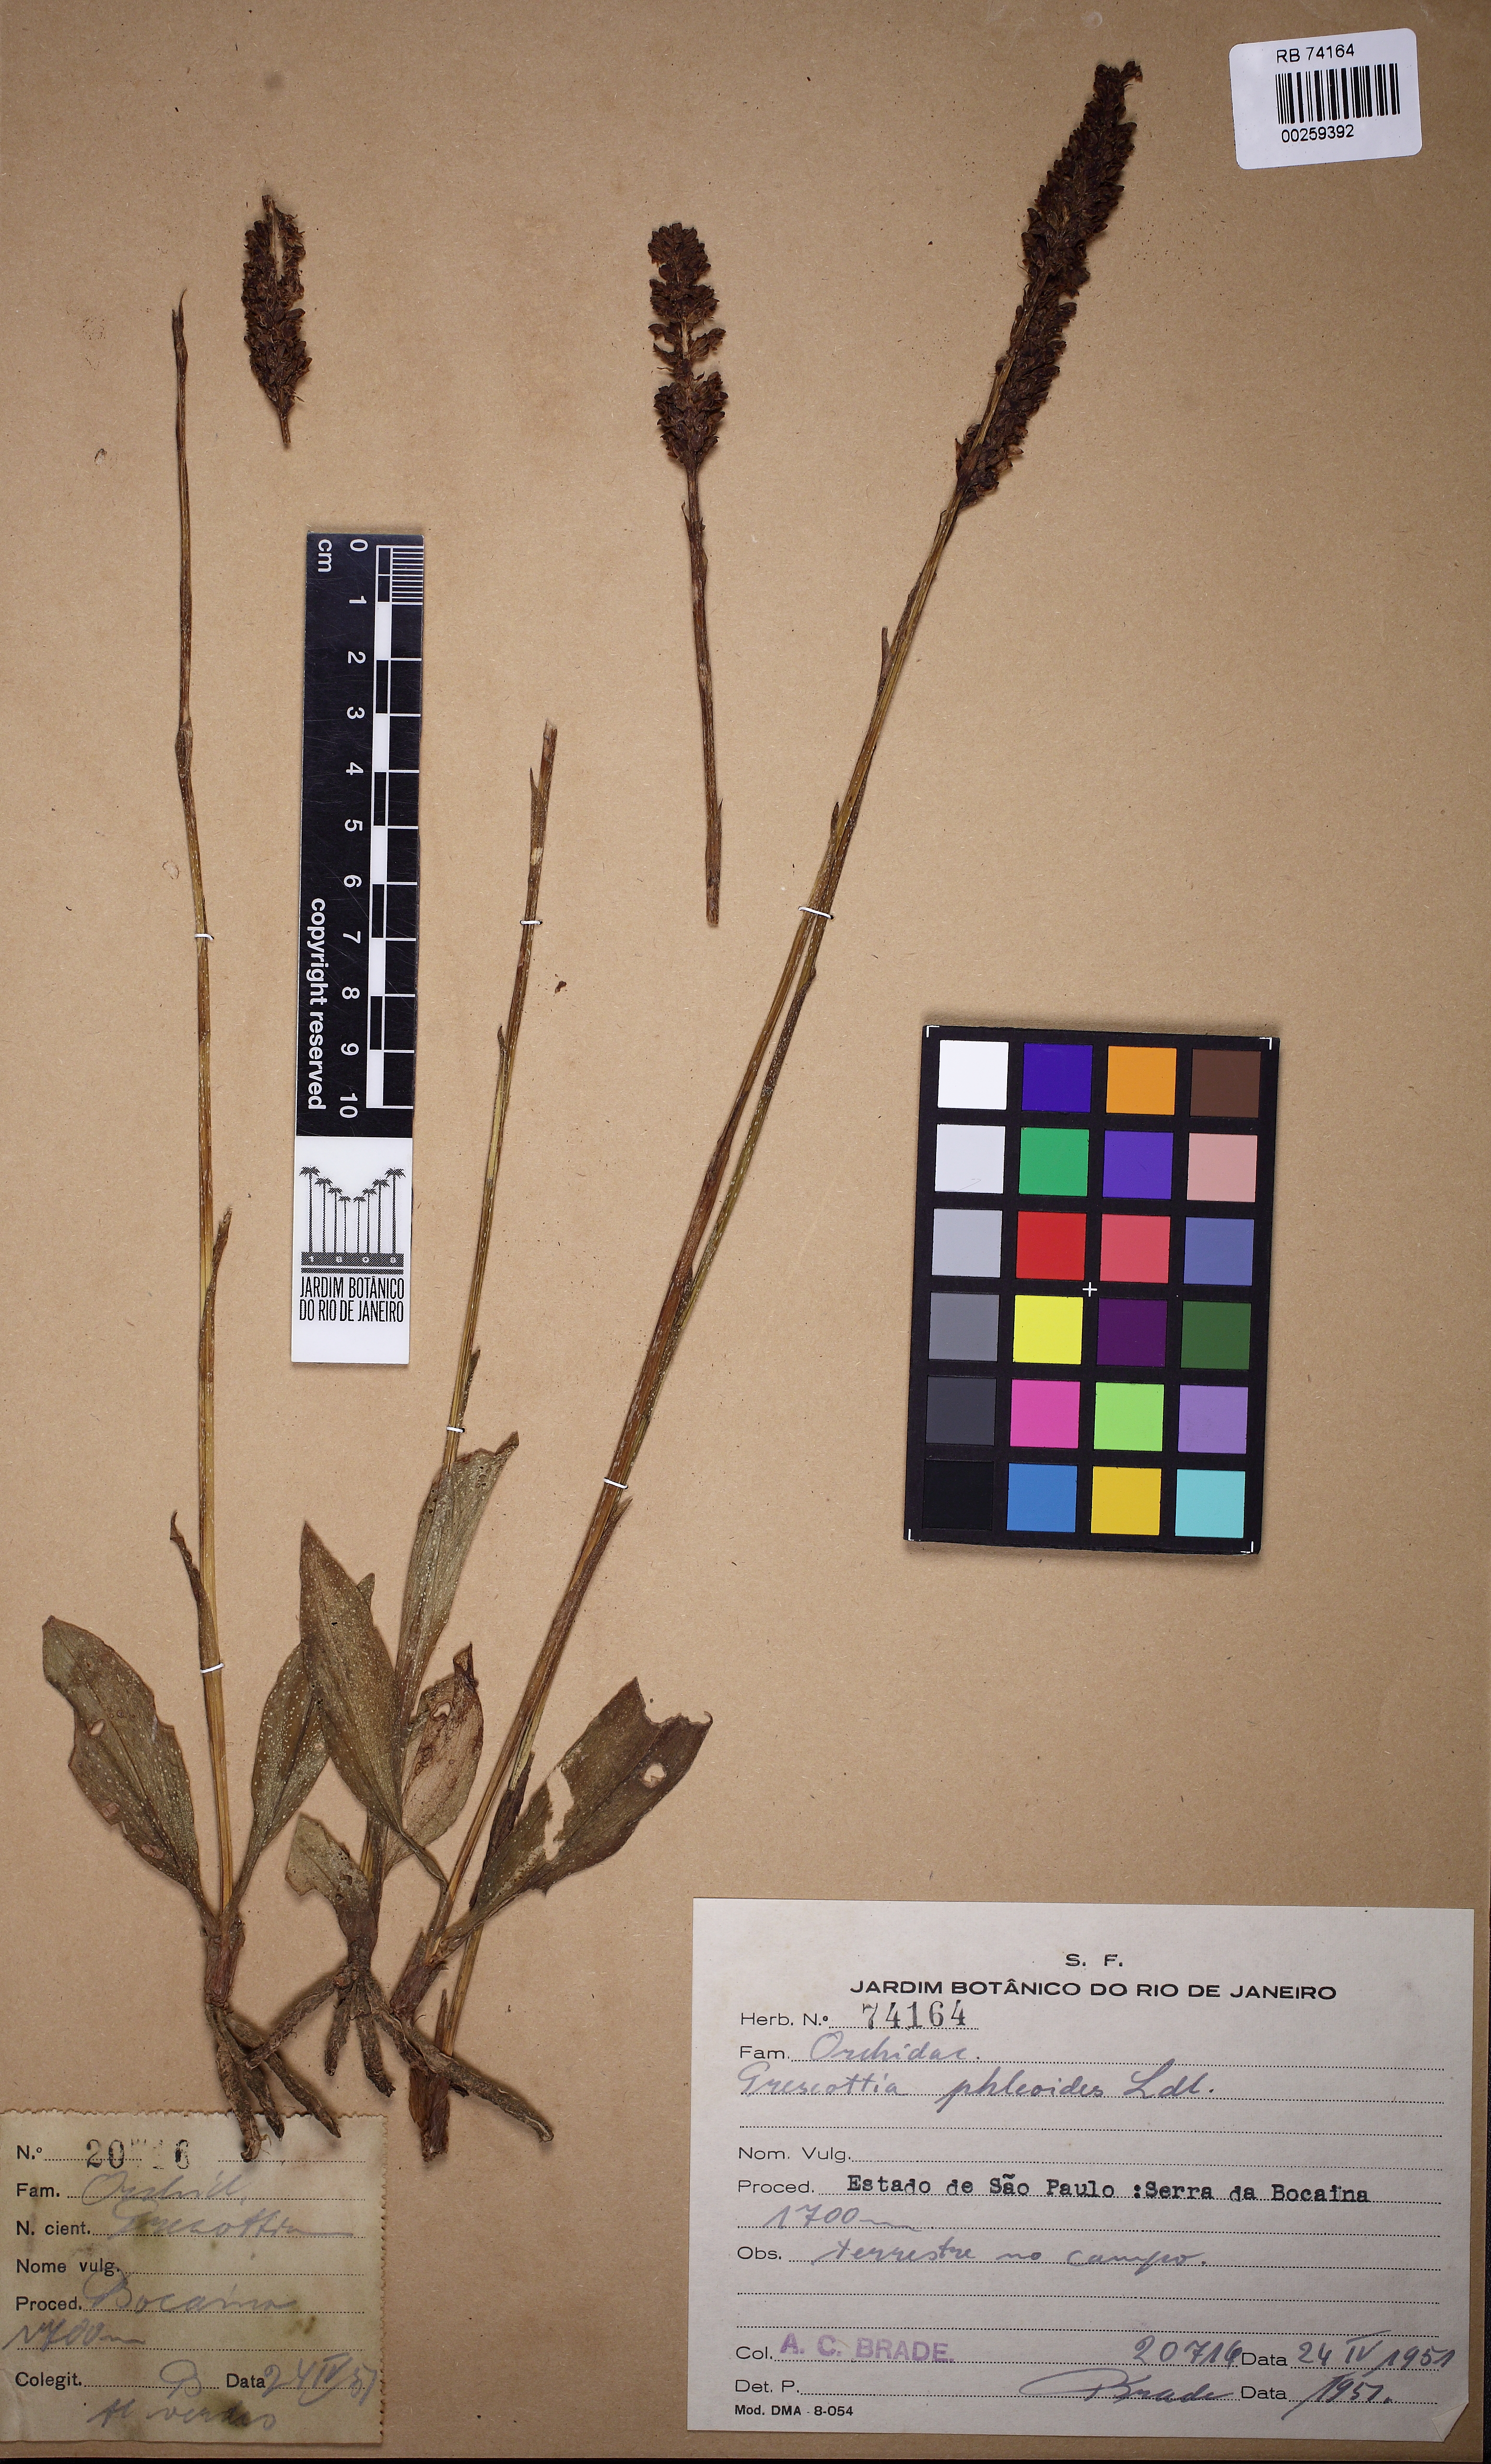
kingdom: Plantae
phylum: Tracheophyta
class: Liliopsida
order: Asparagales
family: Orchidaceae
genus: Prescottia
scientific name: Prescottia phleoides
